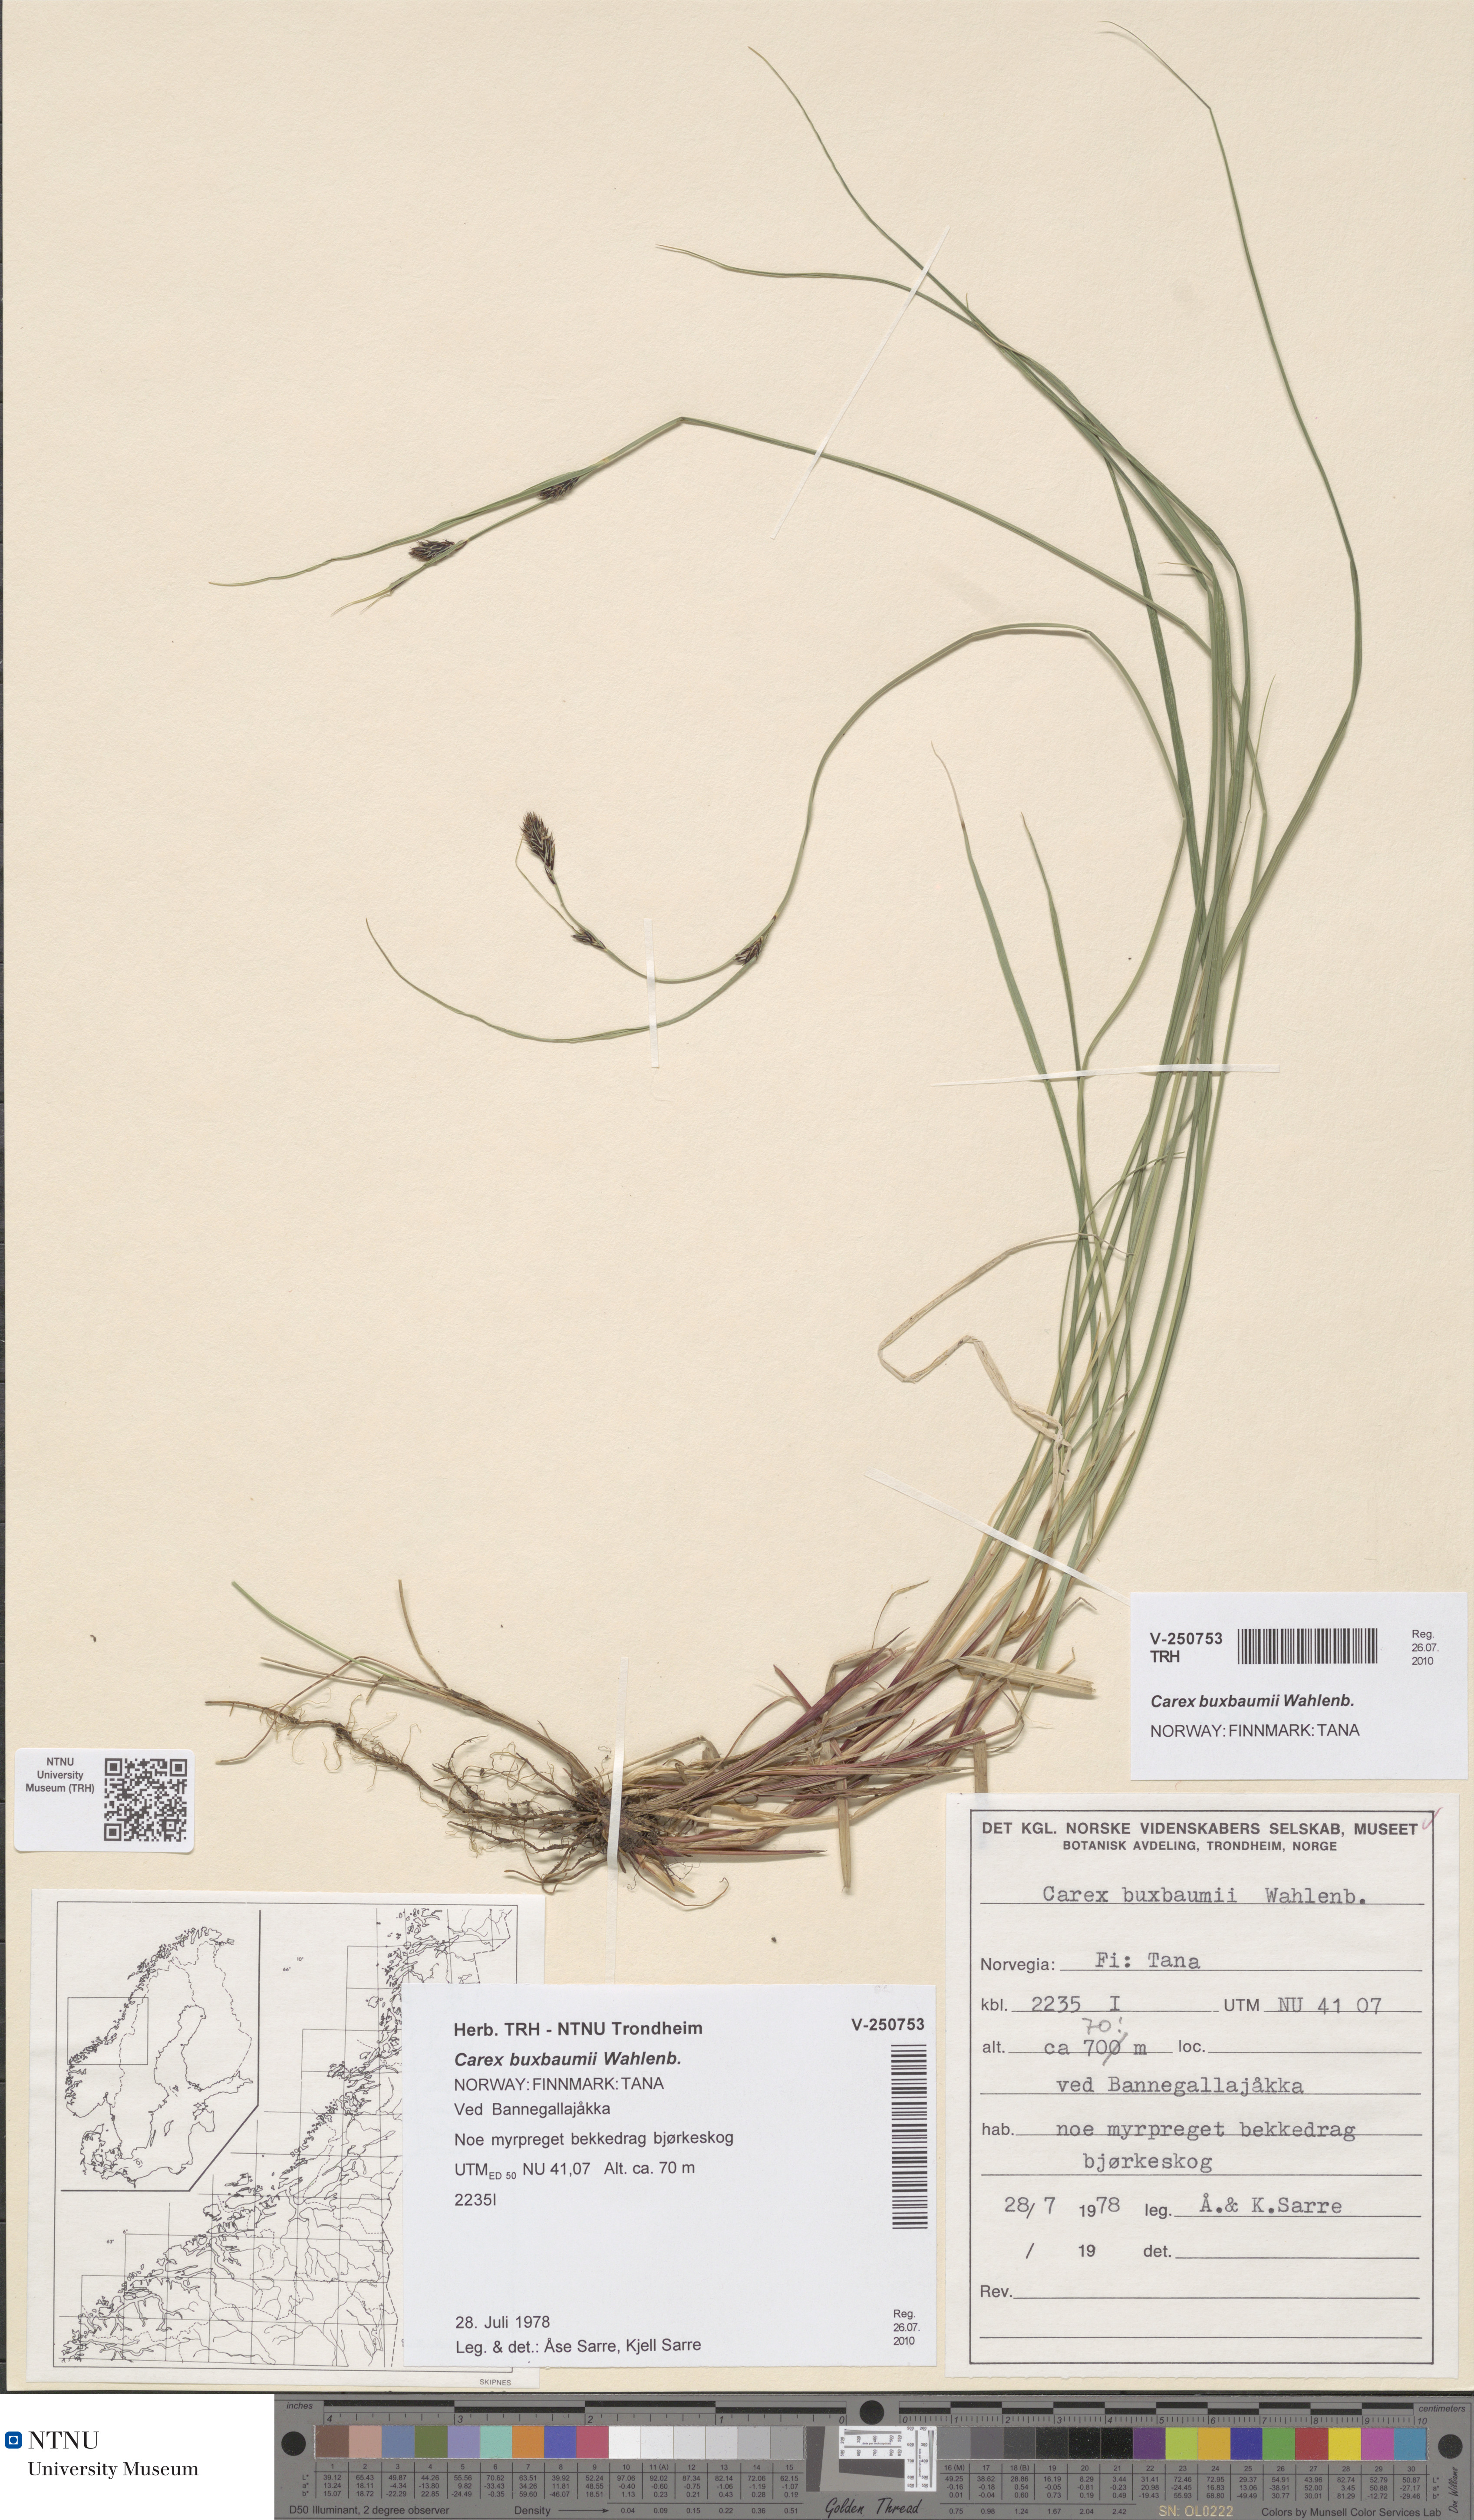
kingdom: Plantae
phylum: Tracheophyta
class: Liliopsida
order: Poales
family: Cyperaceae
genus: Carex
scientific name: Carex buxbaumii
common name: Club sedge
